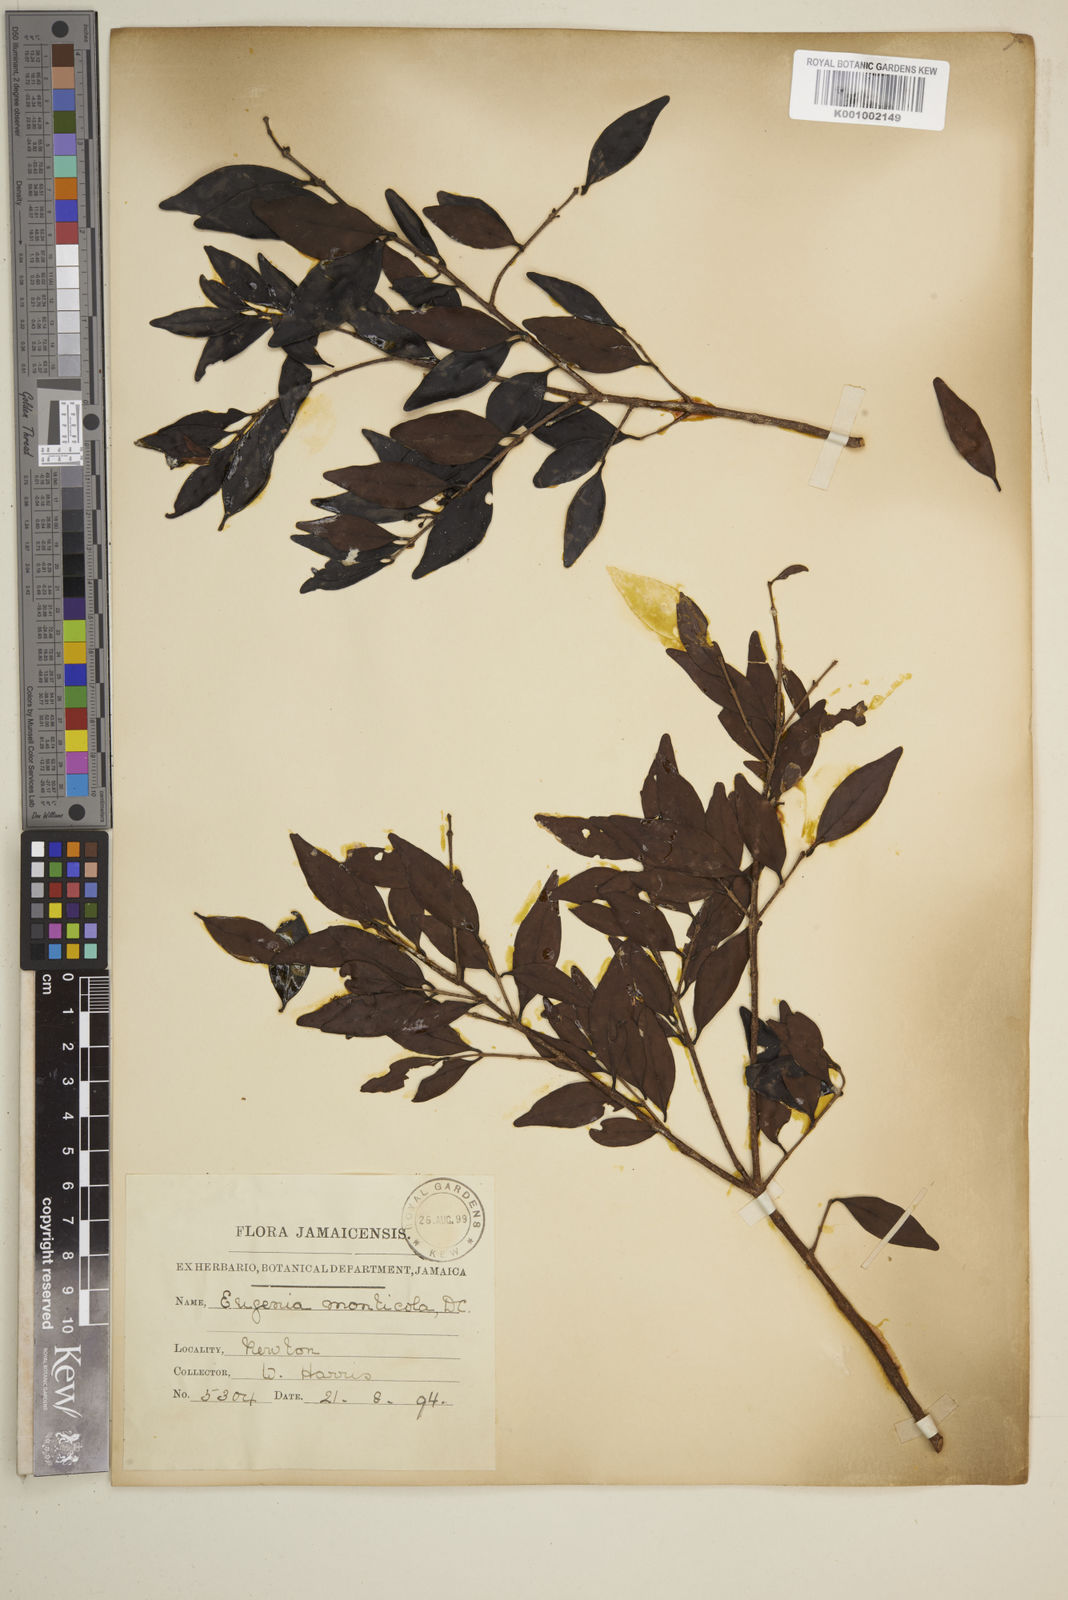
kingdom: Plantae
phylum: Tracheophyta
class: Magnoliopsida
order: Myrtales
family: Myrtaceae
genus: Eugenia
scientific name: Eugenia monticola
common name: Birds berry
